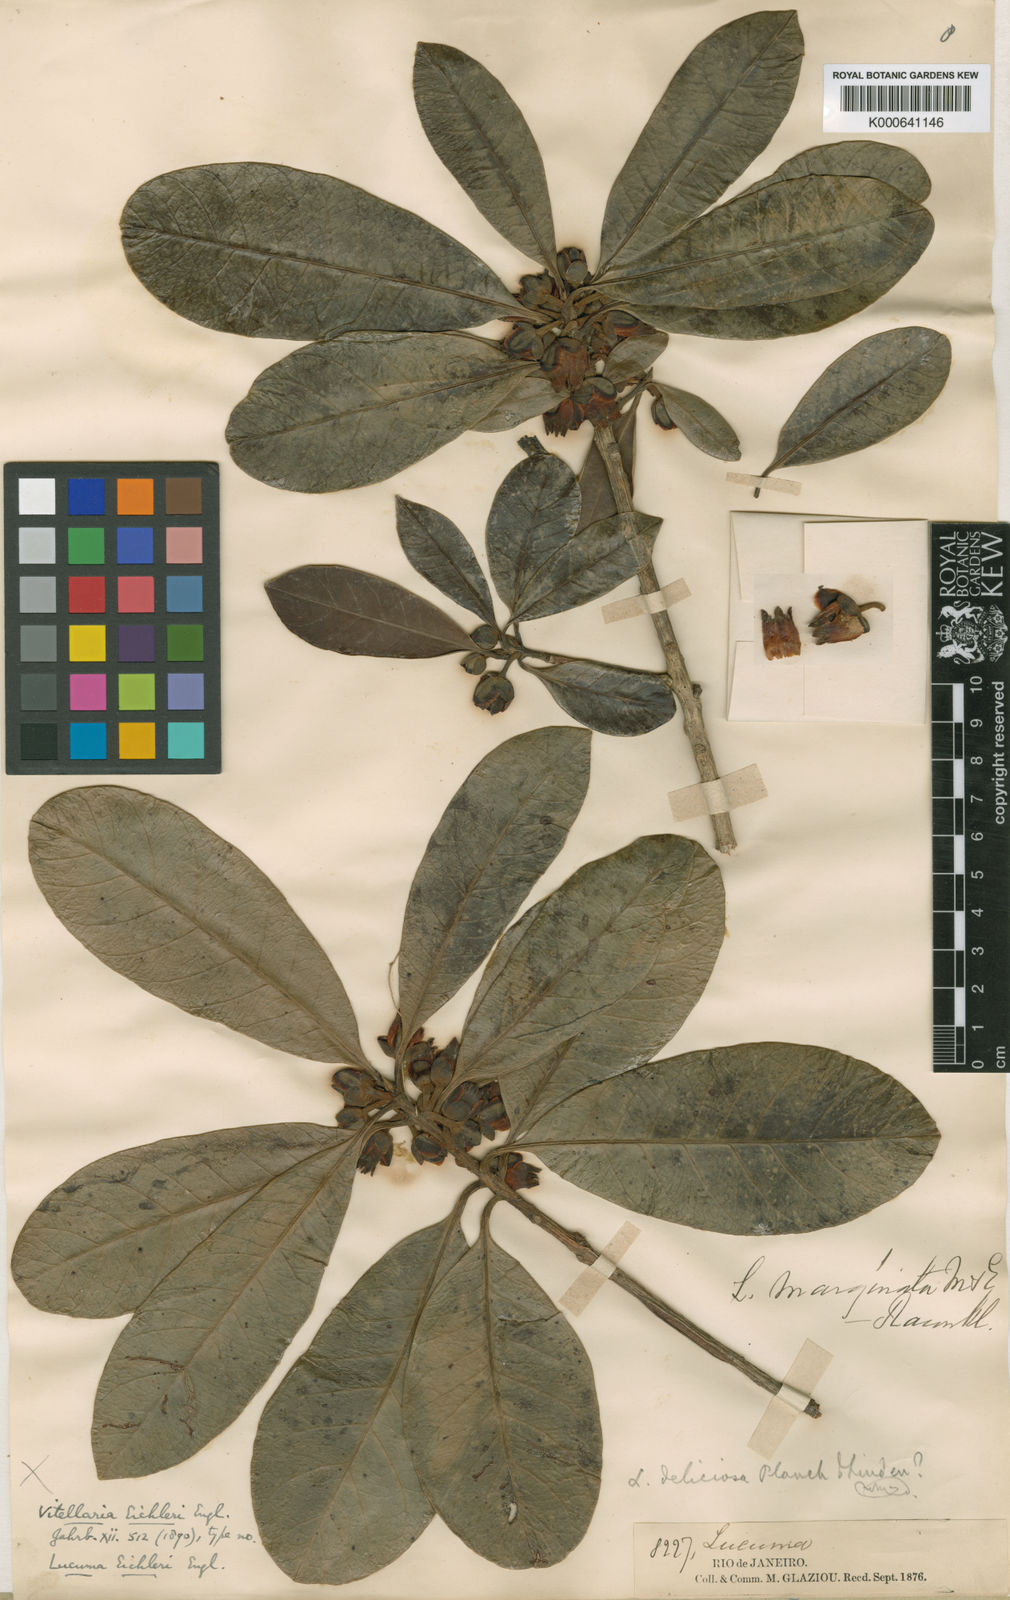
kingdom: Plantae
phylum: Tracheophyta
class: Magnoliopsida
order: Ericales
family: Sapotaceae
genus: Pouteria
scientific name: Pouteria grandiflora
